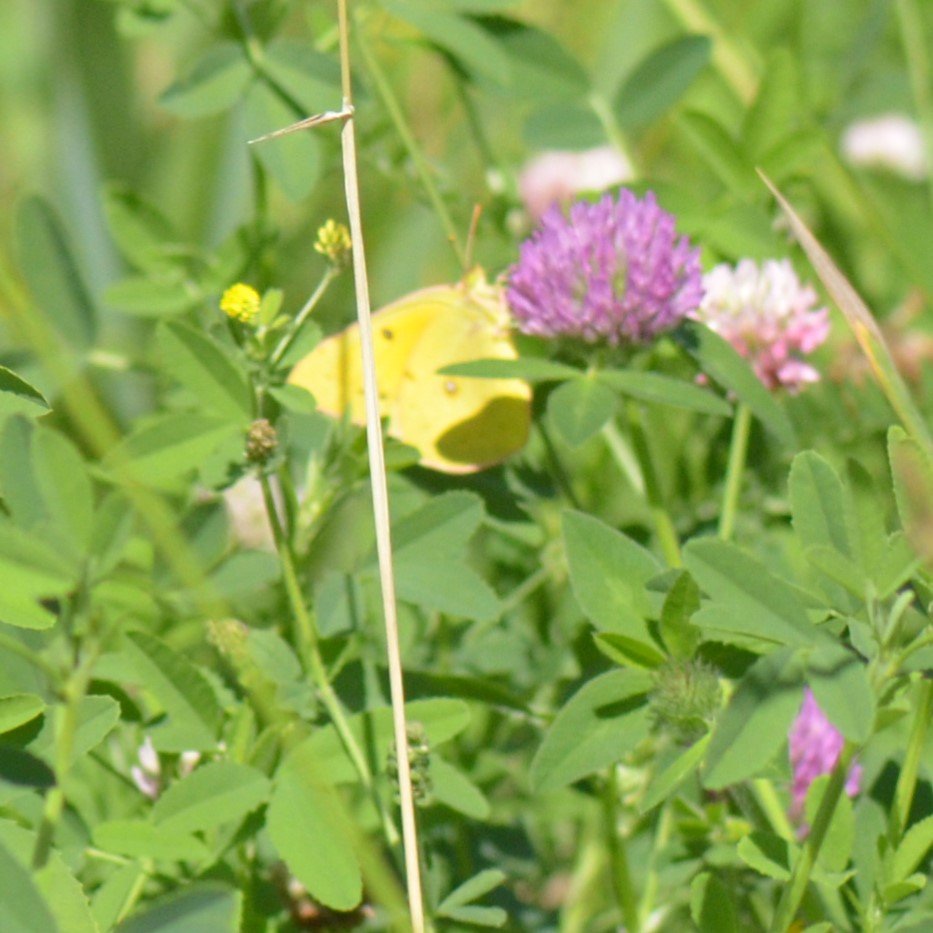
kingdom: Animalia
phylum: Arthropoda
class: Insecta
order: Lepidoptera
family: Pieridae
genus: Colias
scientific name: Colias eurytheme
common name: Orange Sulphur
